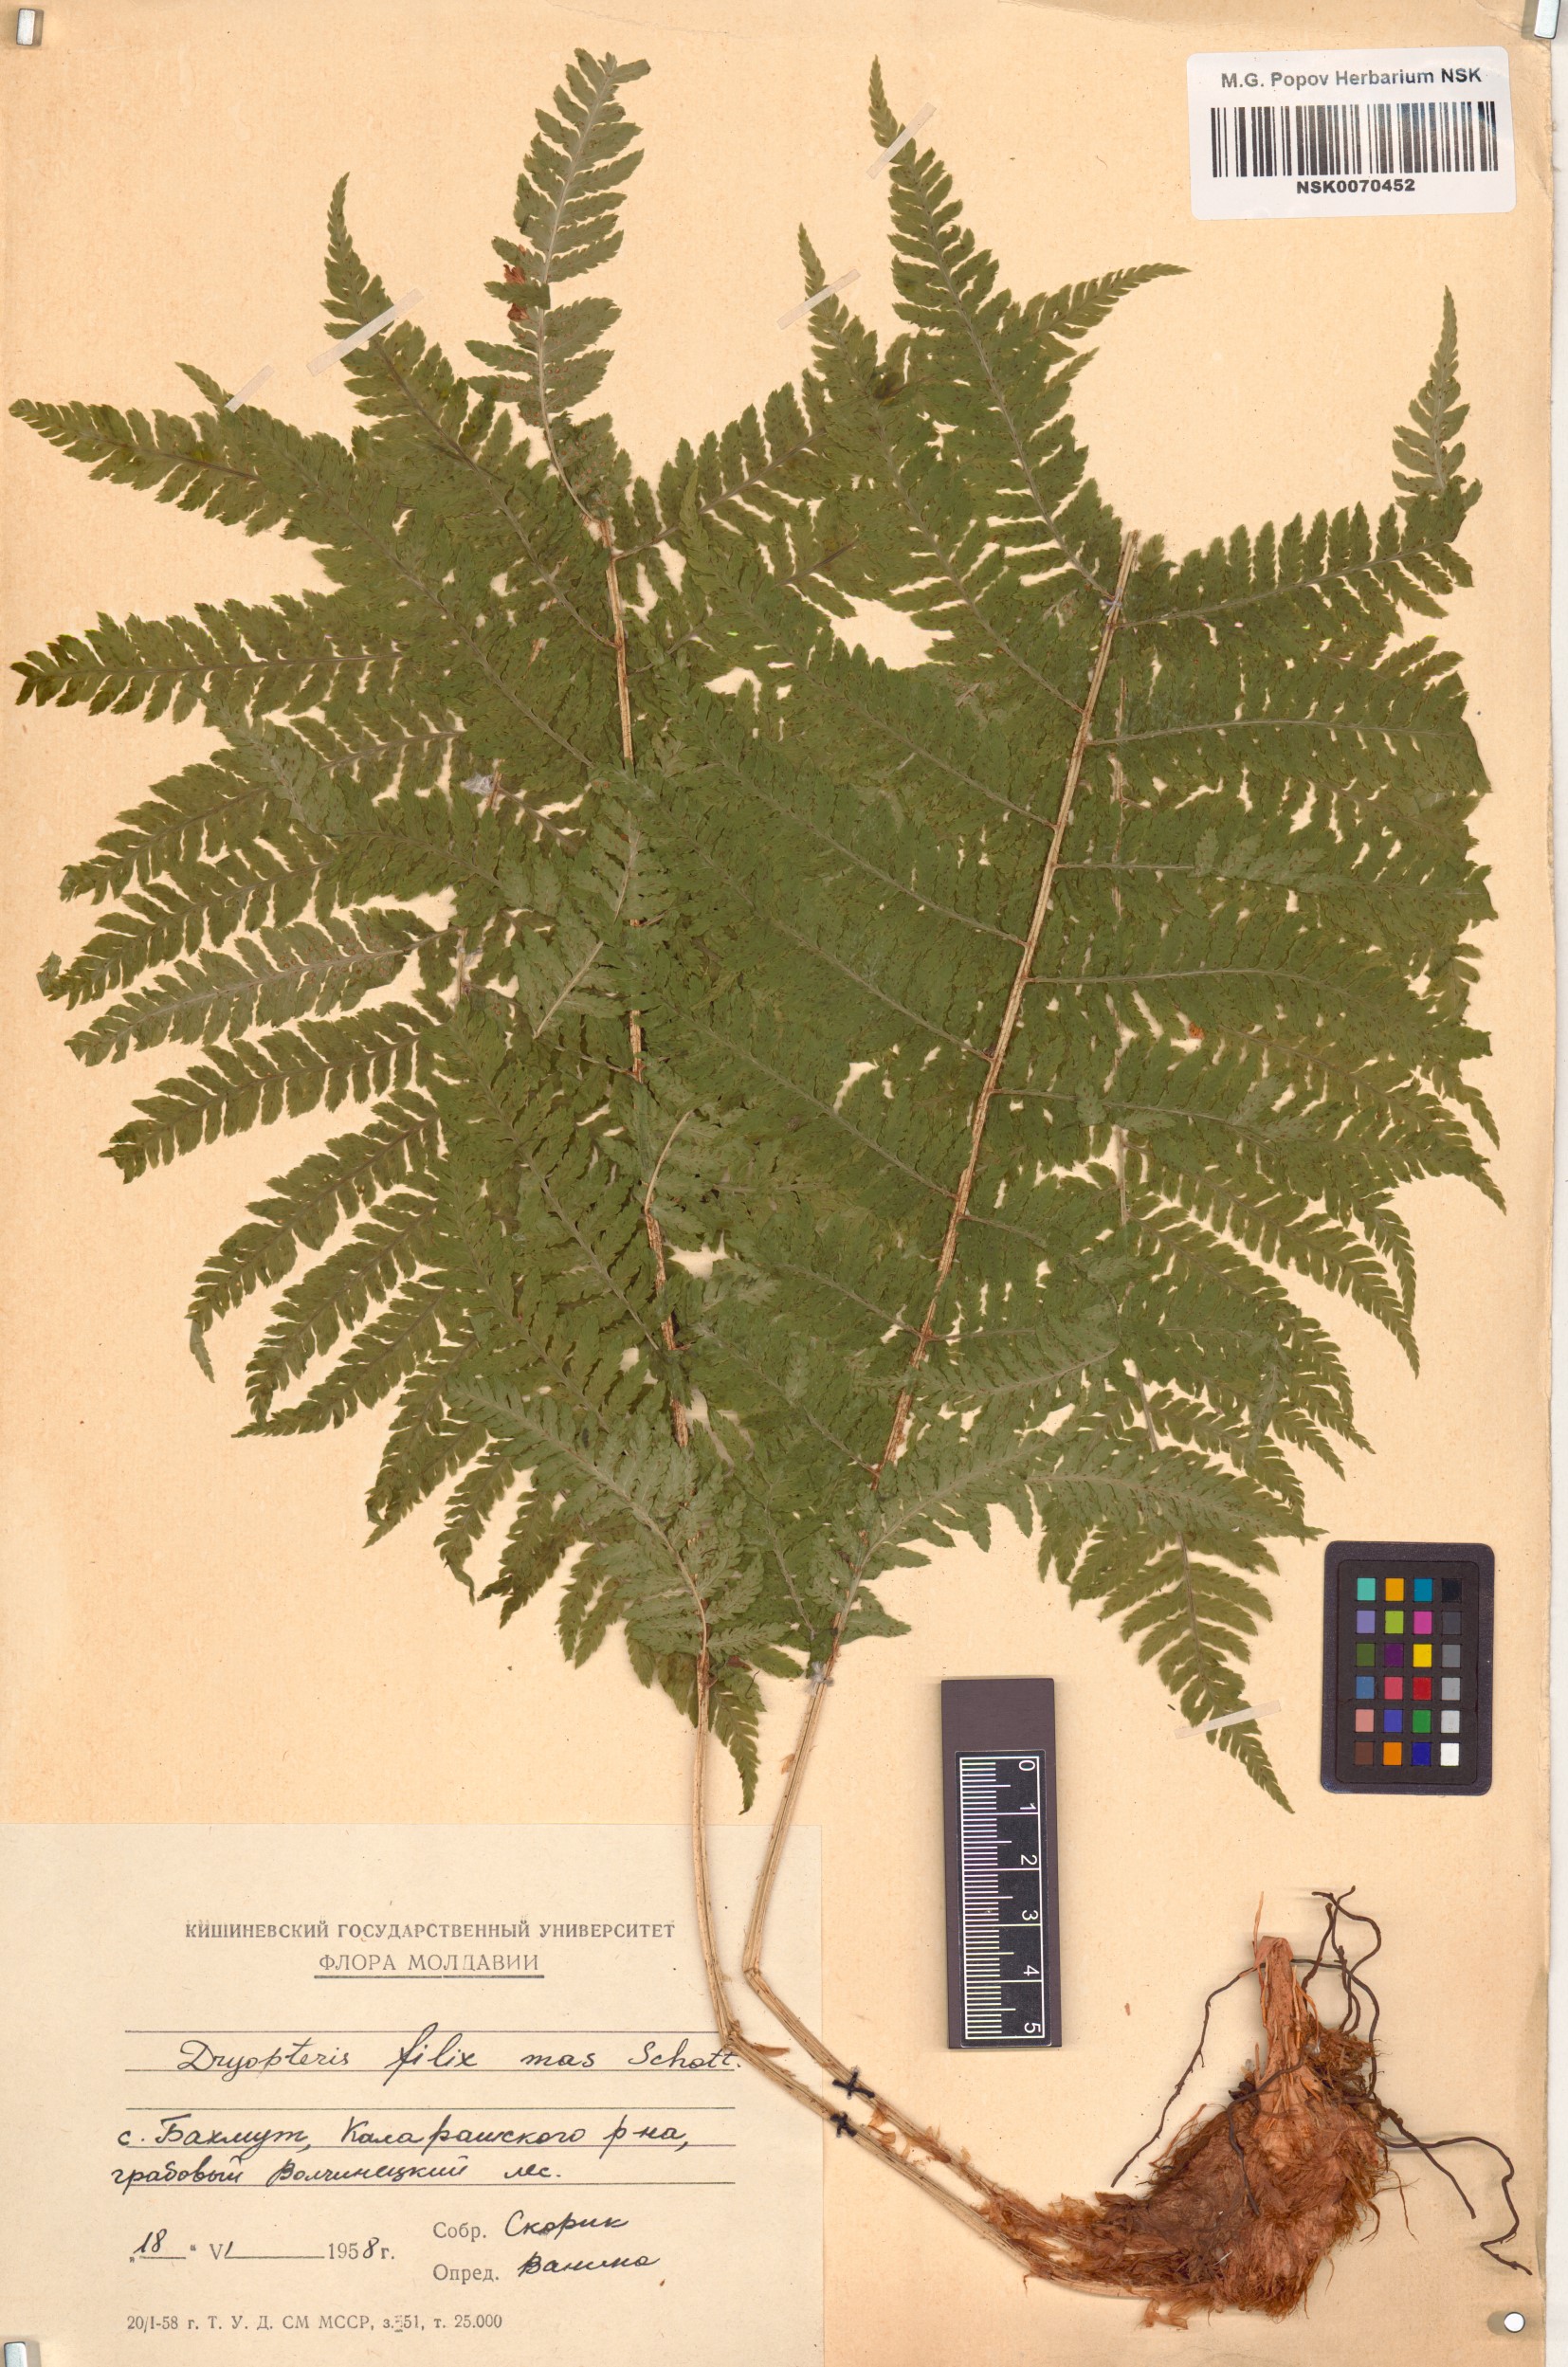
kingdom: Plantae
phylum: Tracheophyta
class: Polypodiopsida
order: Polypodiales
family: Dryopteridaceae
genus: Dryopteris
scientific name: Dryopteris filix-mas
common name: Male fern
